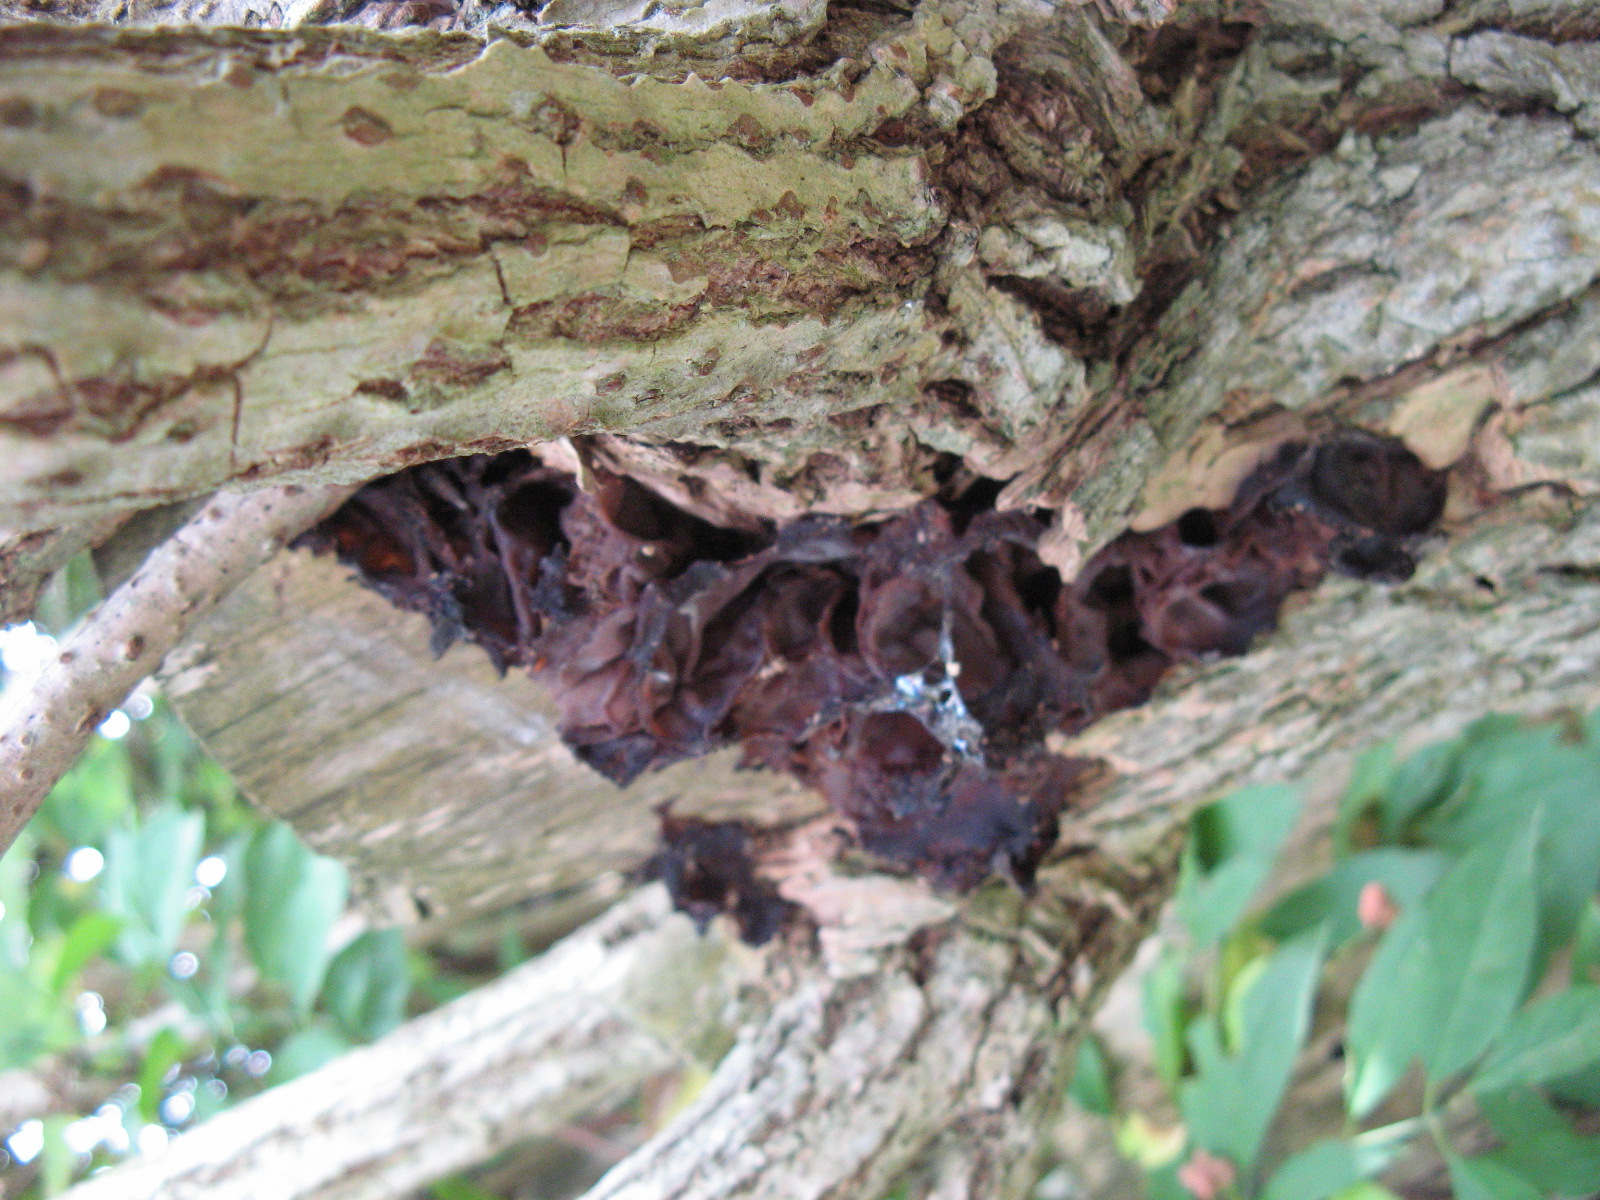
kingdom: Fungi
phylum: Basidiomycota
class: Agaricomycetes
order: Auriculariales
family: Auriculariaceae
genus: Auricularia
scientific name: Auricularia auricula-judae
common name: almindelig judasøre
